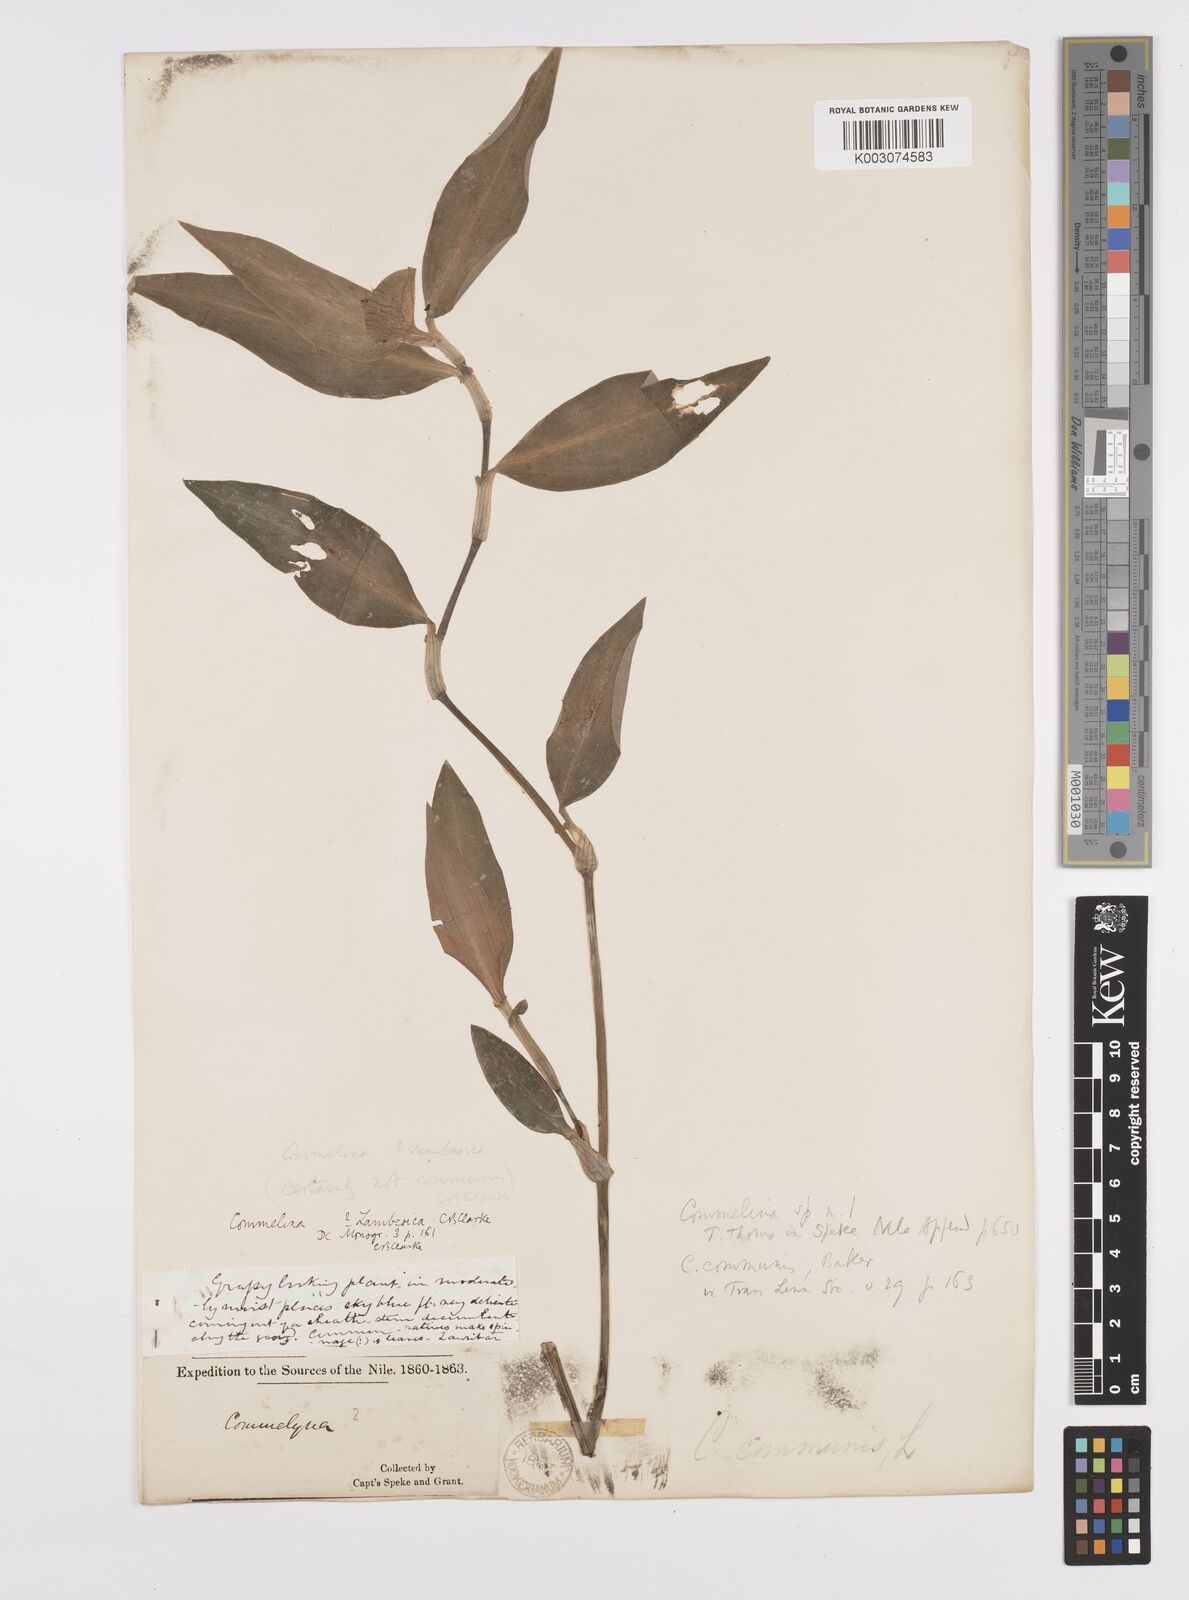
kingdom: Plantae
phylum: Tracheophyta
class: Liliopsida
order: Commelinales
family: Commelinaceae
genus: Commelina
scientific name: Commelina zambesica
